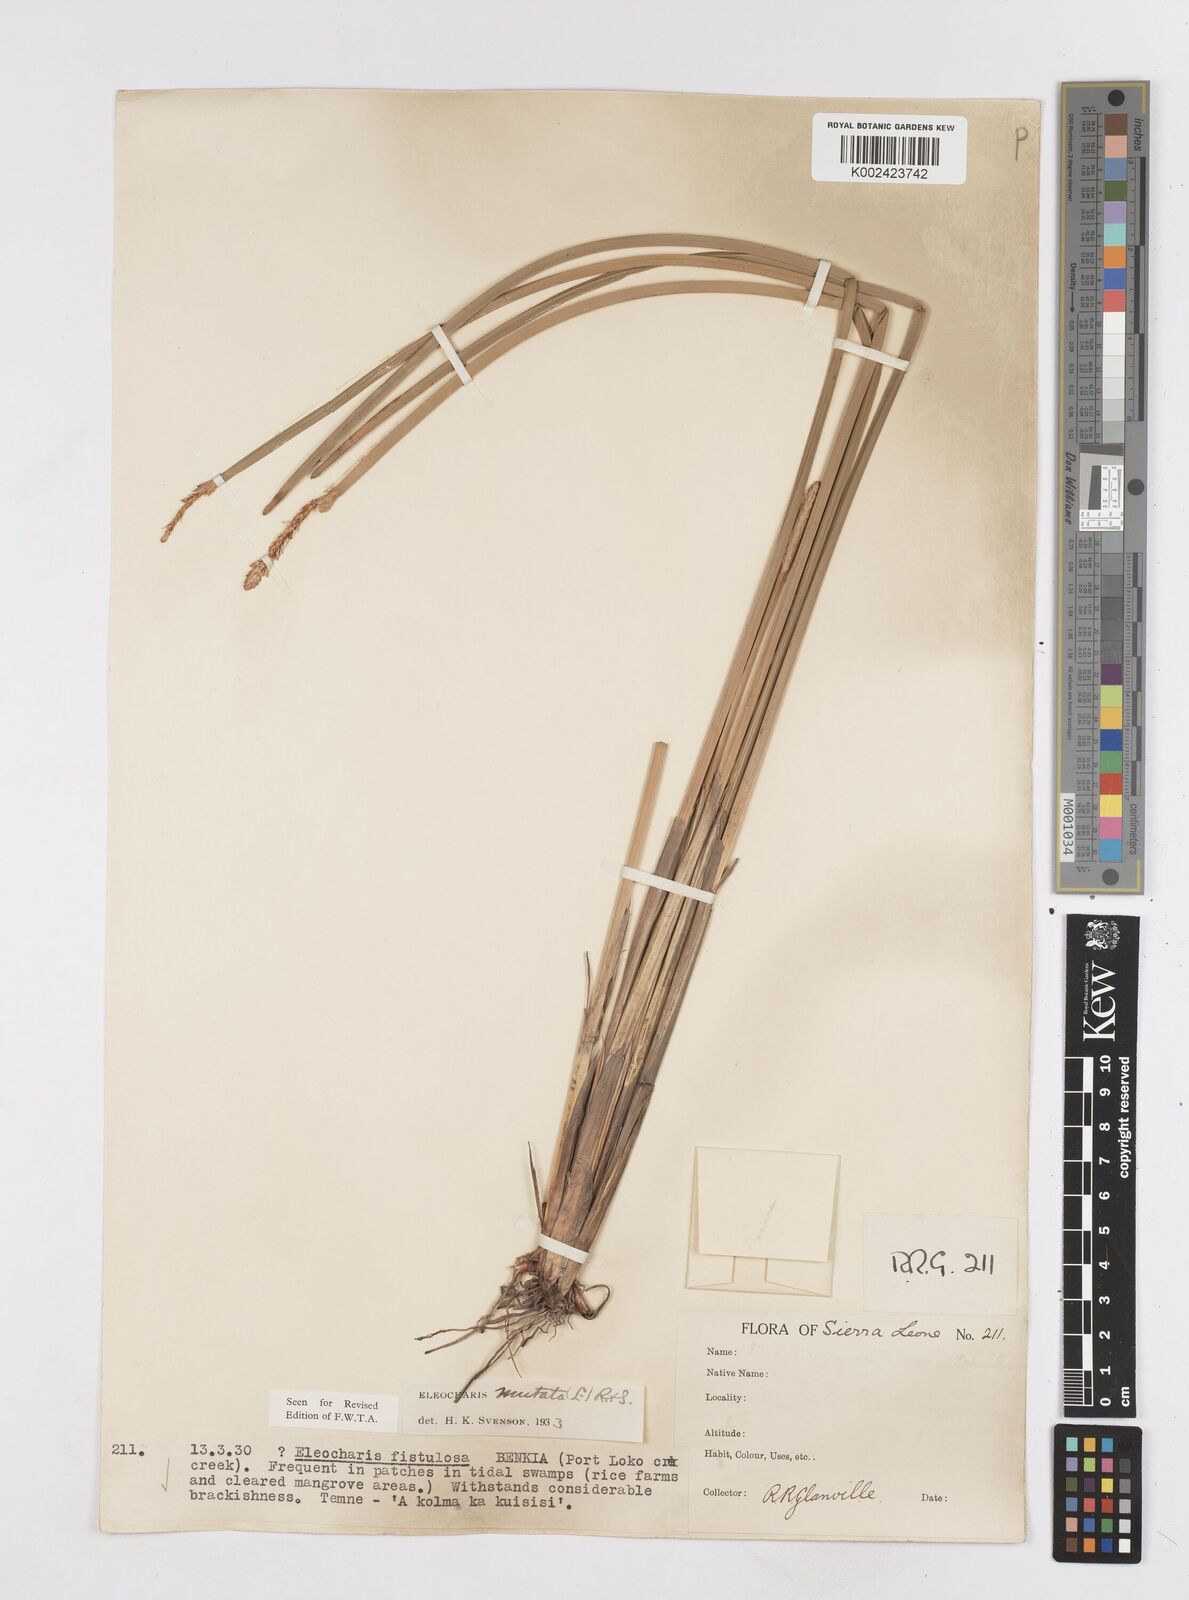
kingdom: Plantae
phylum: Tracheophyta
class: Liliopsida
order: Poales
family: Cyperaceae
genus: Eleocharis
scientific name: Eleocharis mutata
